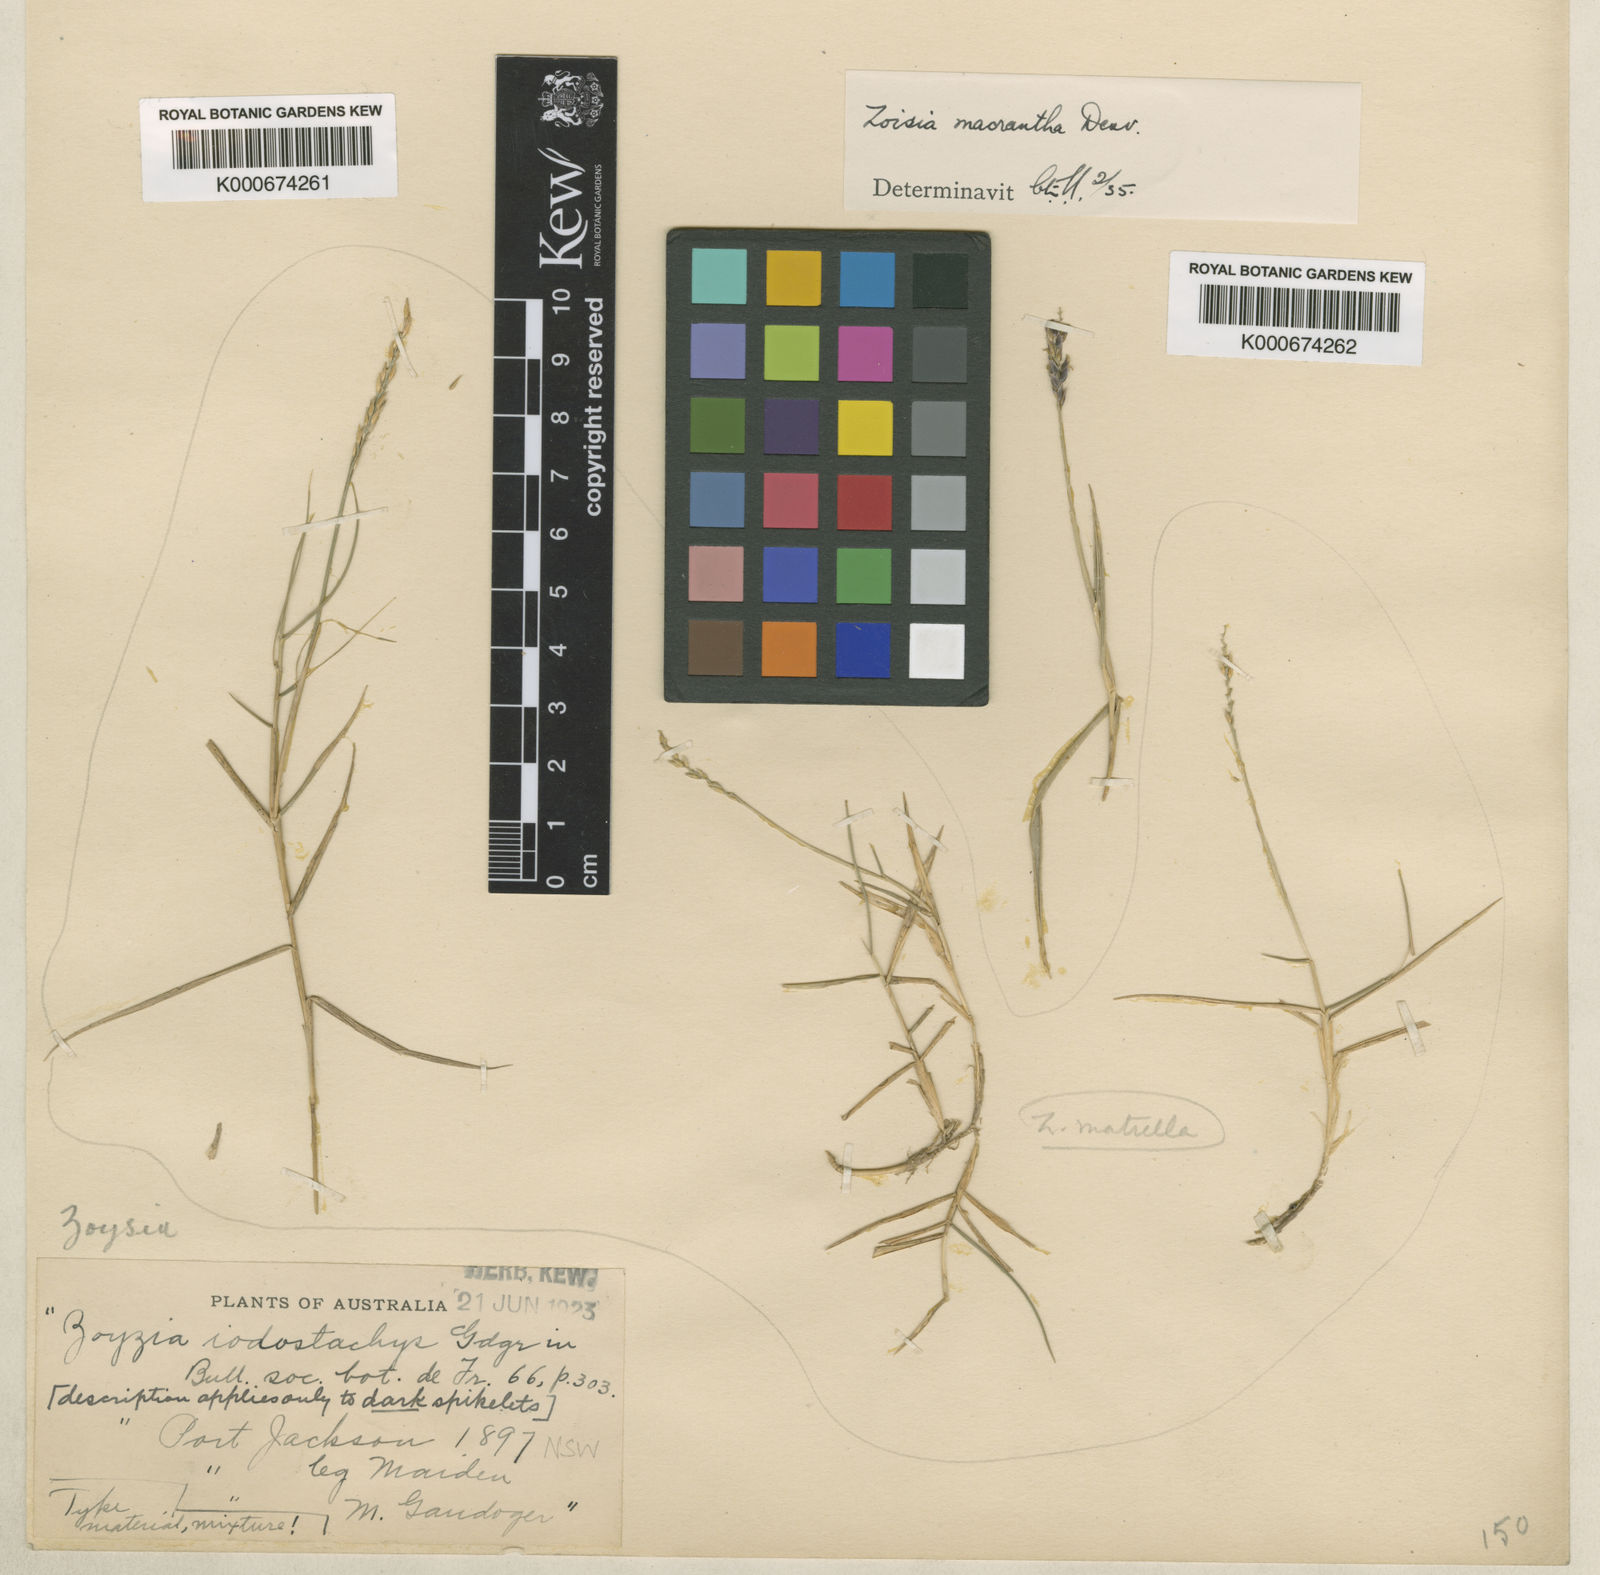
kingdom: Plantae
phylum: Tracheophyta
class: Liliopsida
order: Poales
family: Poaceae
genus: Zoysia
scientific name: Zoysia macrantha
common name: Korean lawn grass
